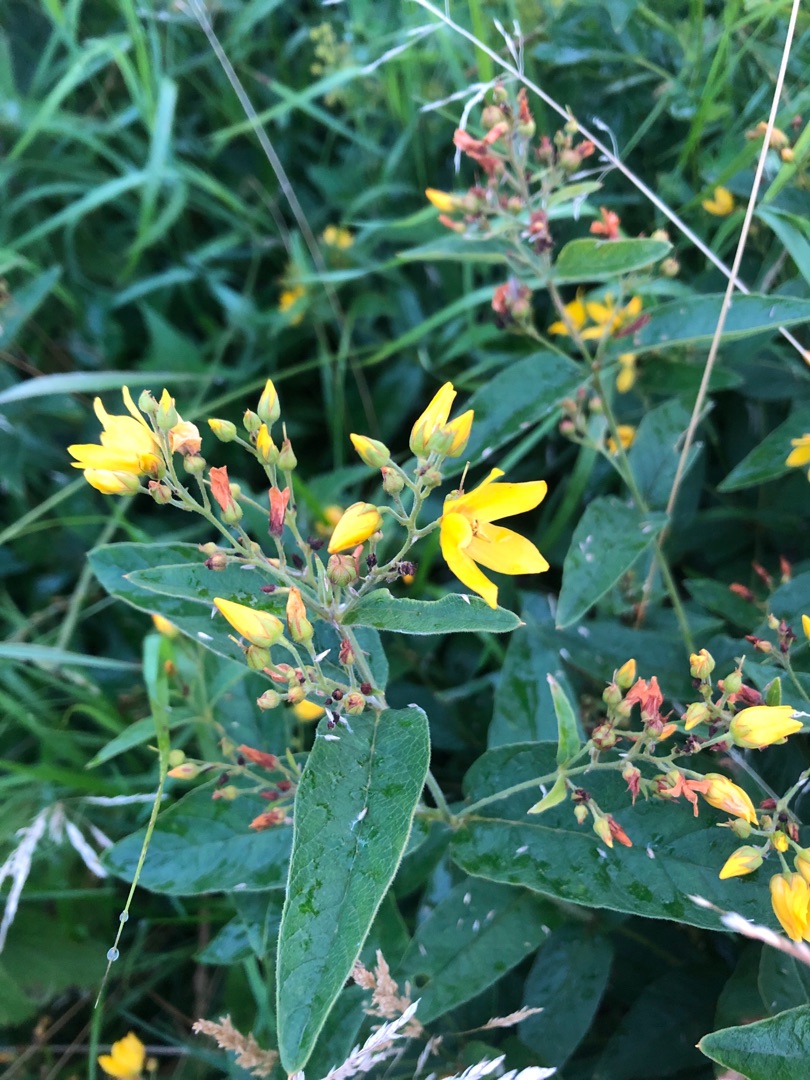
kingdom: Plantae
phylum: Tracheophyta
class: Magnoliopsida
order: Ericales
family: Primulaceae
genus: Lysimachia
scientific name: Lysimachia vulgaris
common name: Almindelig fredløs
